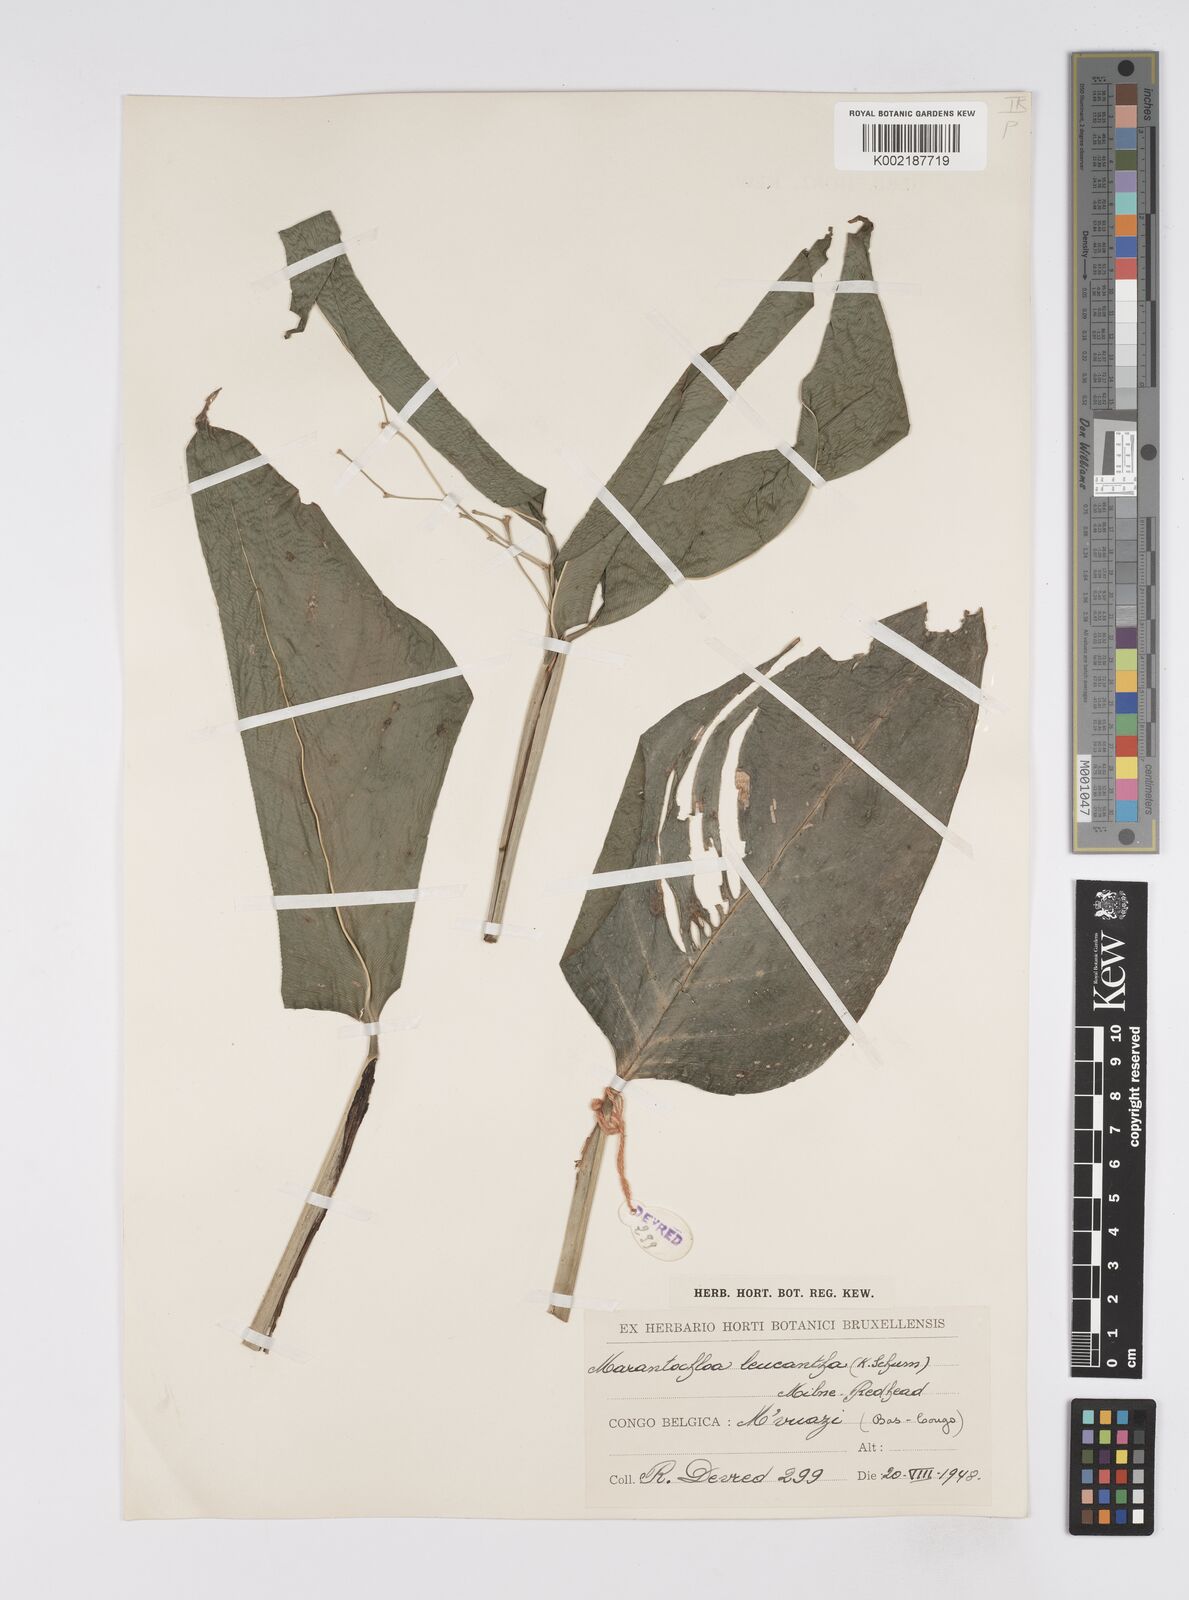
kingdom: Plantae
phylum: Tracheophyta
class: Liliopsida
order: Zingiberales
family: Marantaceae
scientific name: Marantaceae
